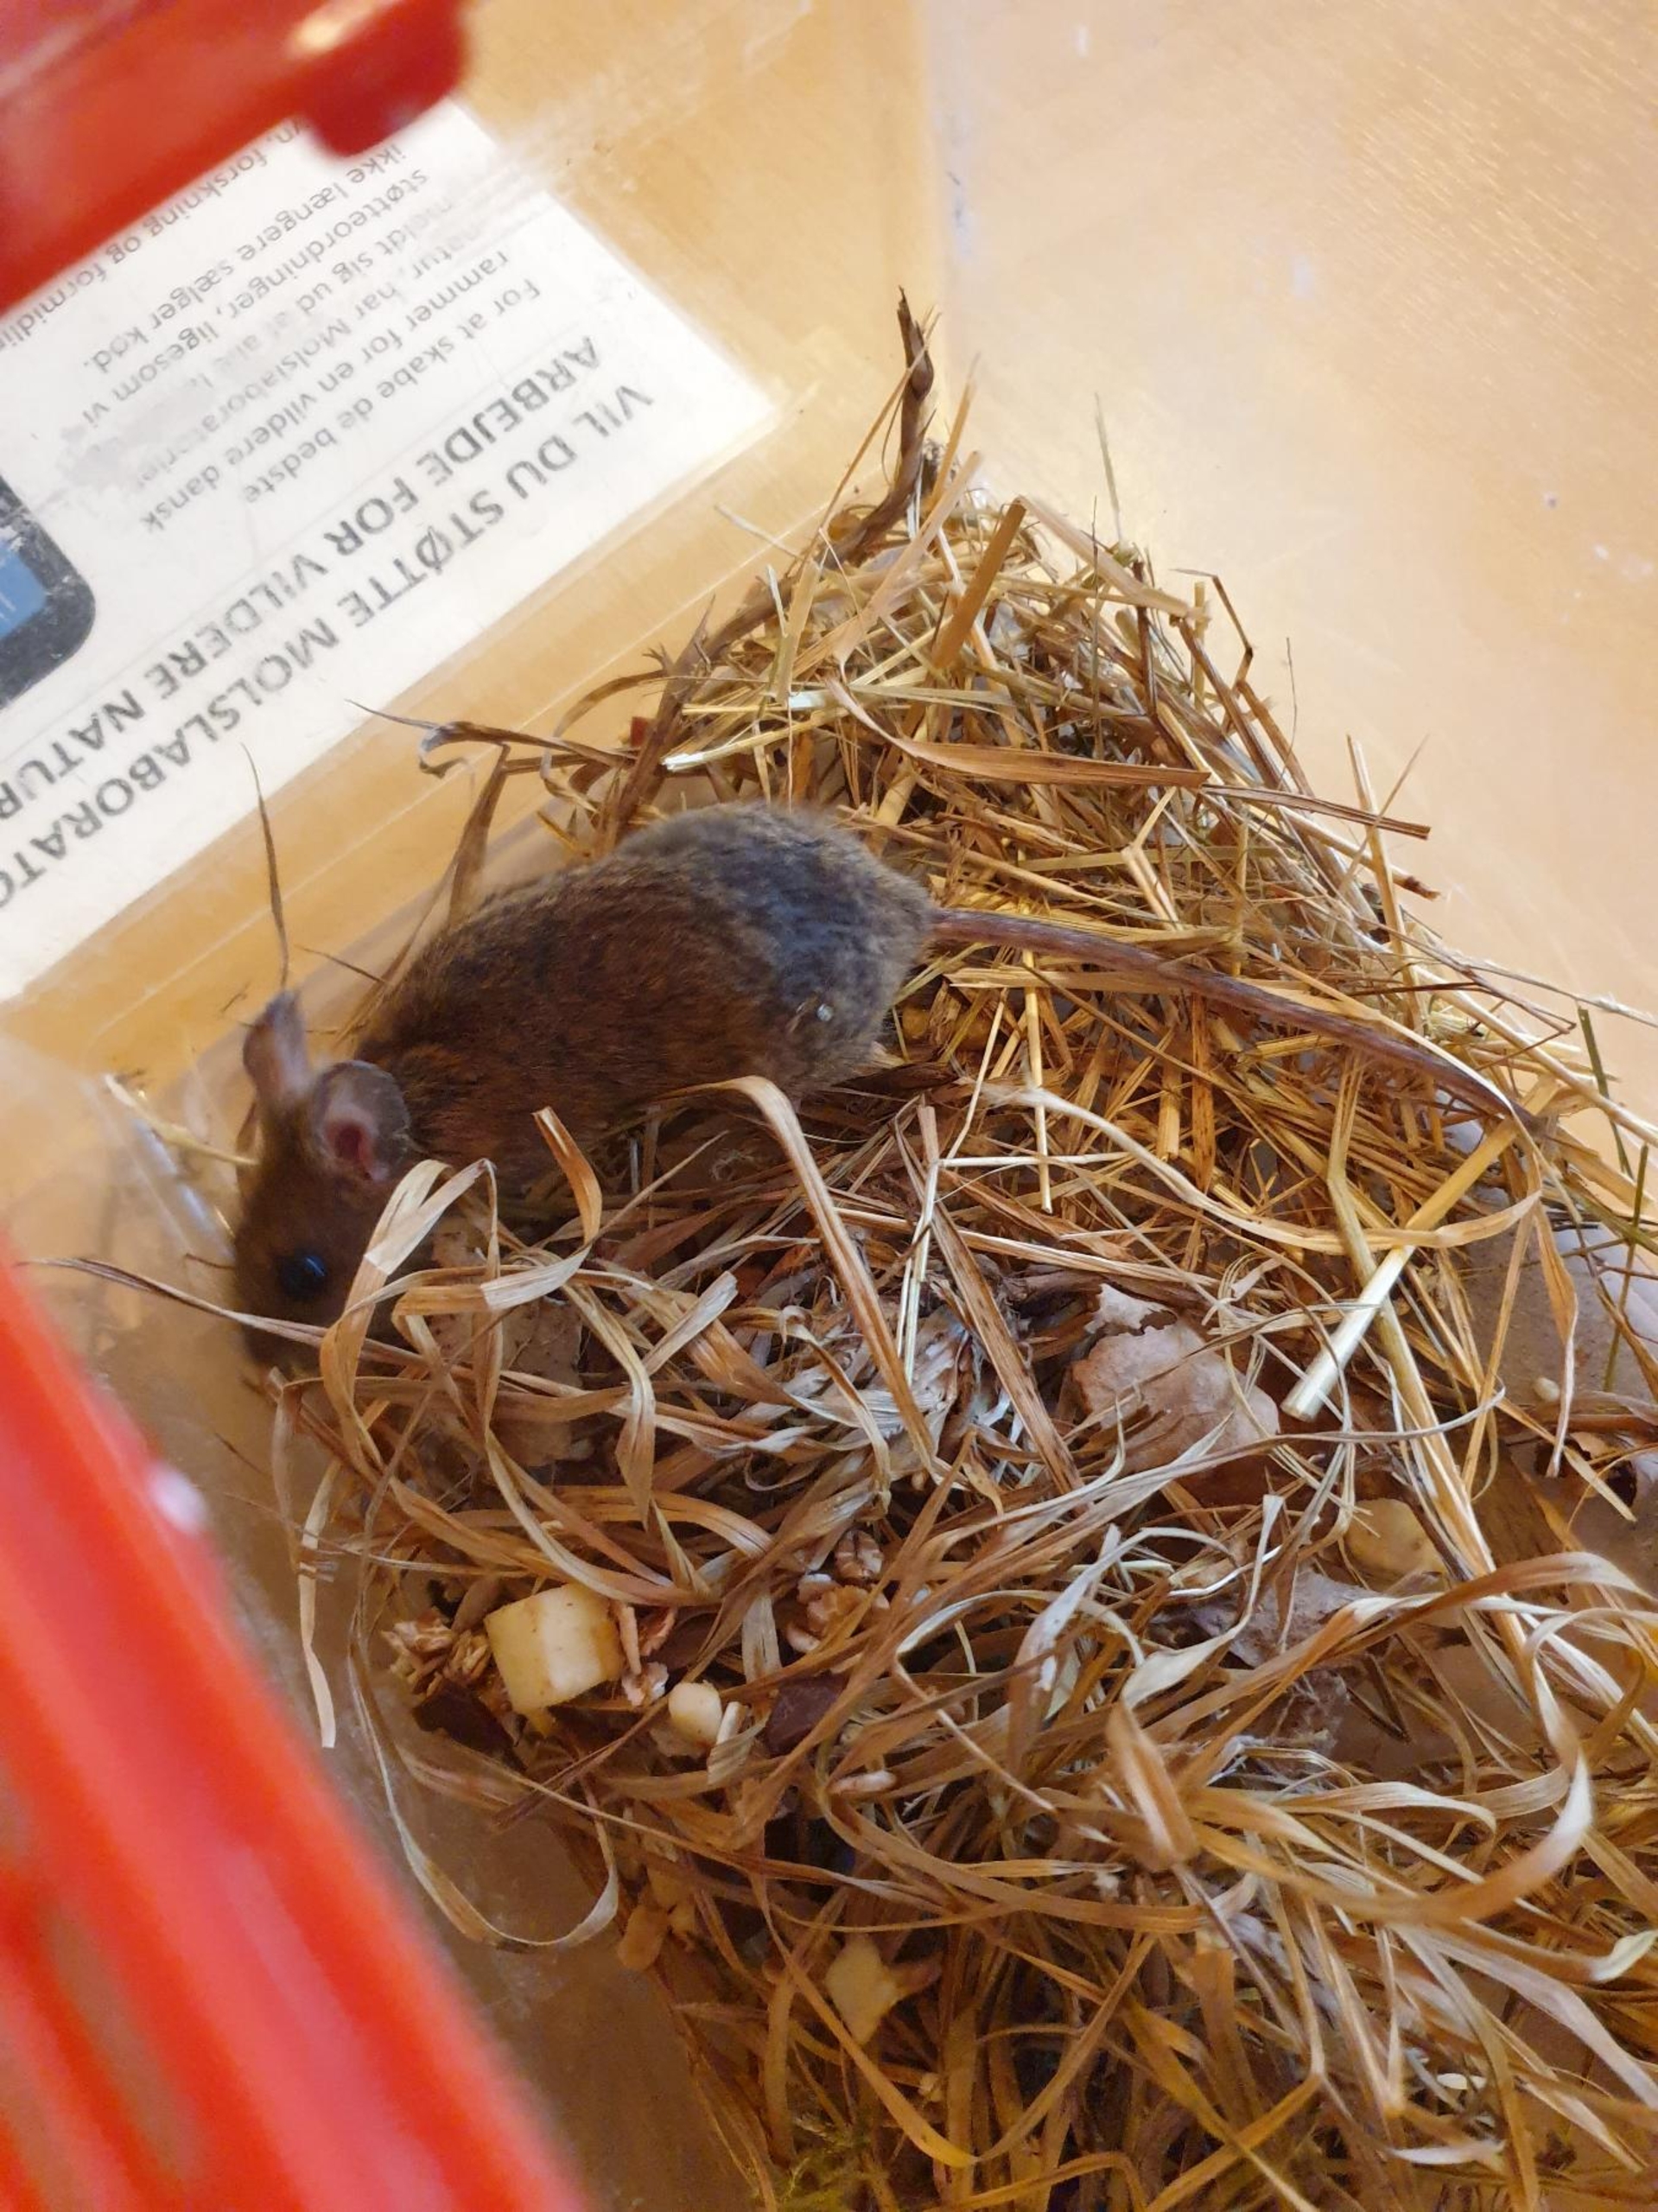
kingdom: Animalia
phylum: Chordata
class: Mammalia
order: Rodentia
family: Muridae
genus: Apodemus
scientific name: Apodemus flavicollis
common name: Halsbåndmus
